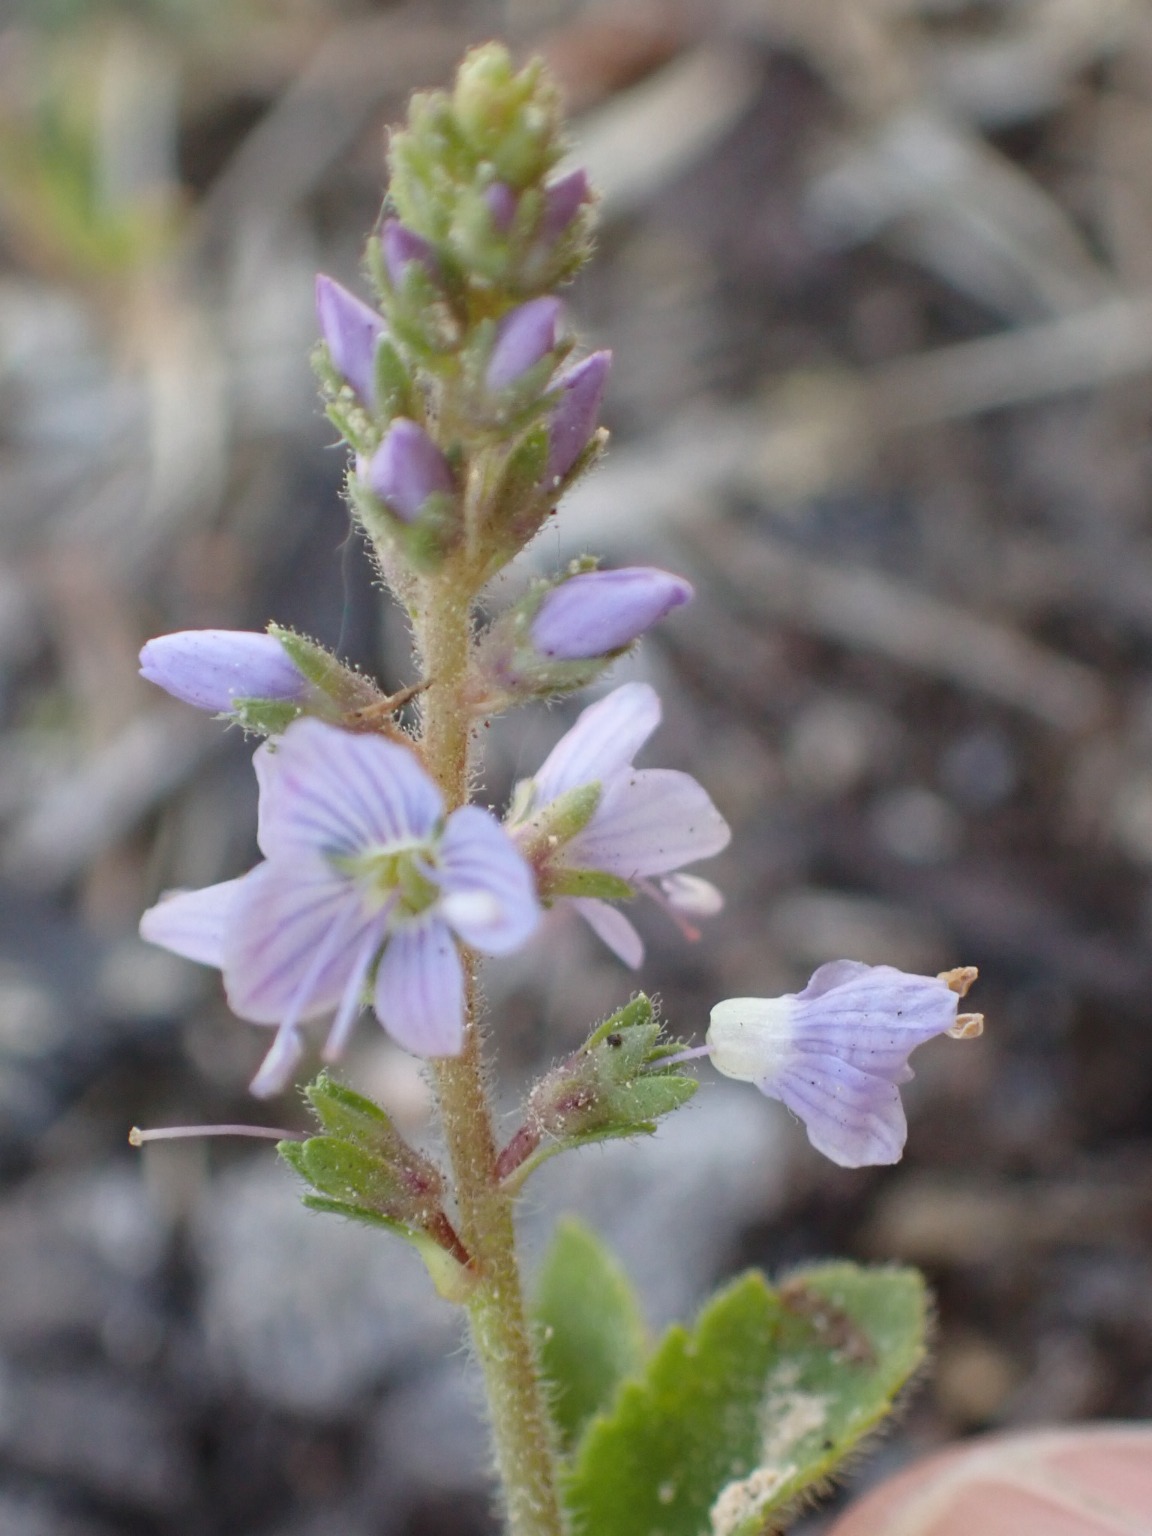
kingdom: Plantae
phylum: Tracheophyta
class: Magnoliopsida
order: Lamiales
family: Plantaginaceae
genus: Veronica
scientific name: Veronica officinalis
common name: Læge-ærenpris
